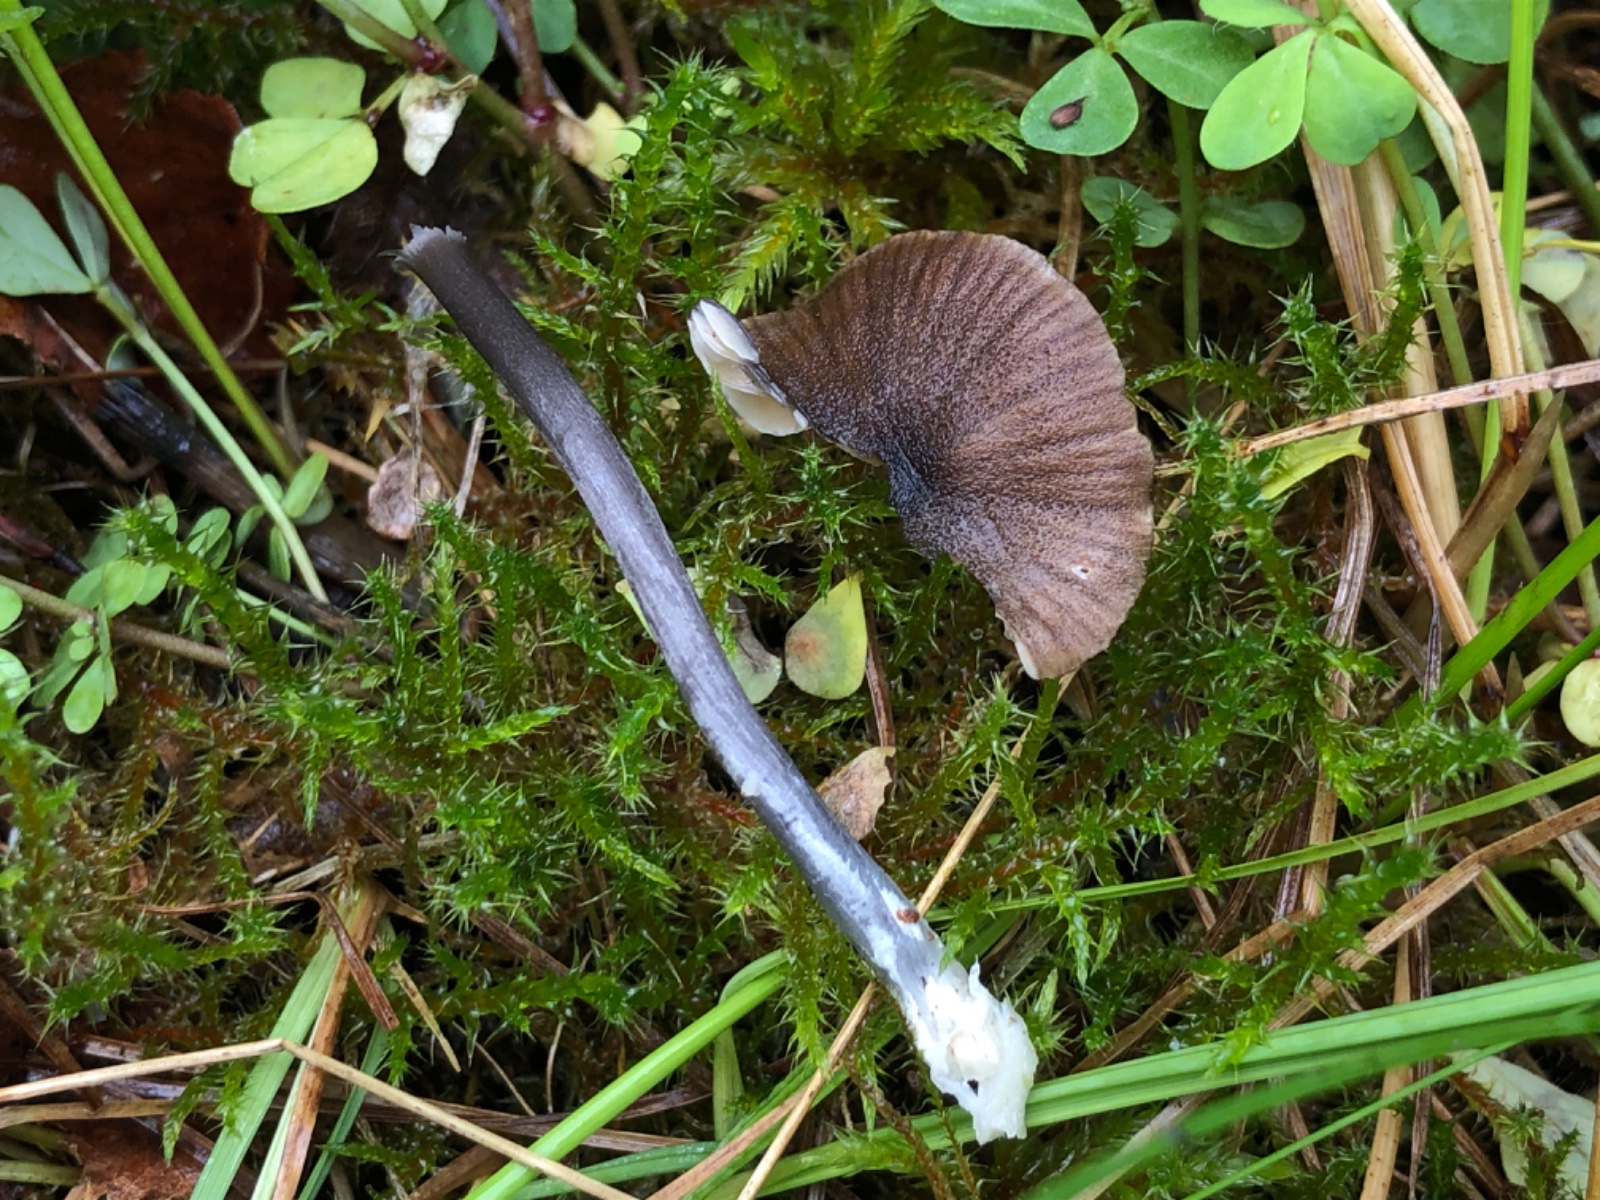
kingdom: Fungi
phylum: Basidiomycota
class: Agaricomycetes
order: Agaricales
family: Entolomataceae
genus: Entoloma
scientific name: Entoloma
